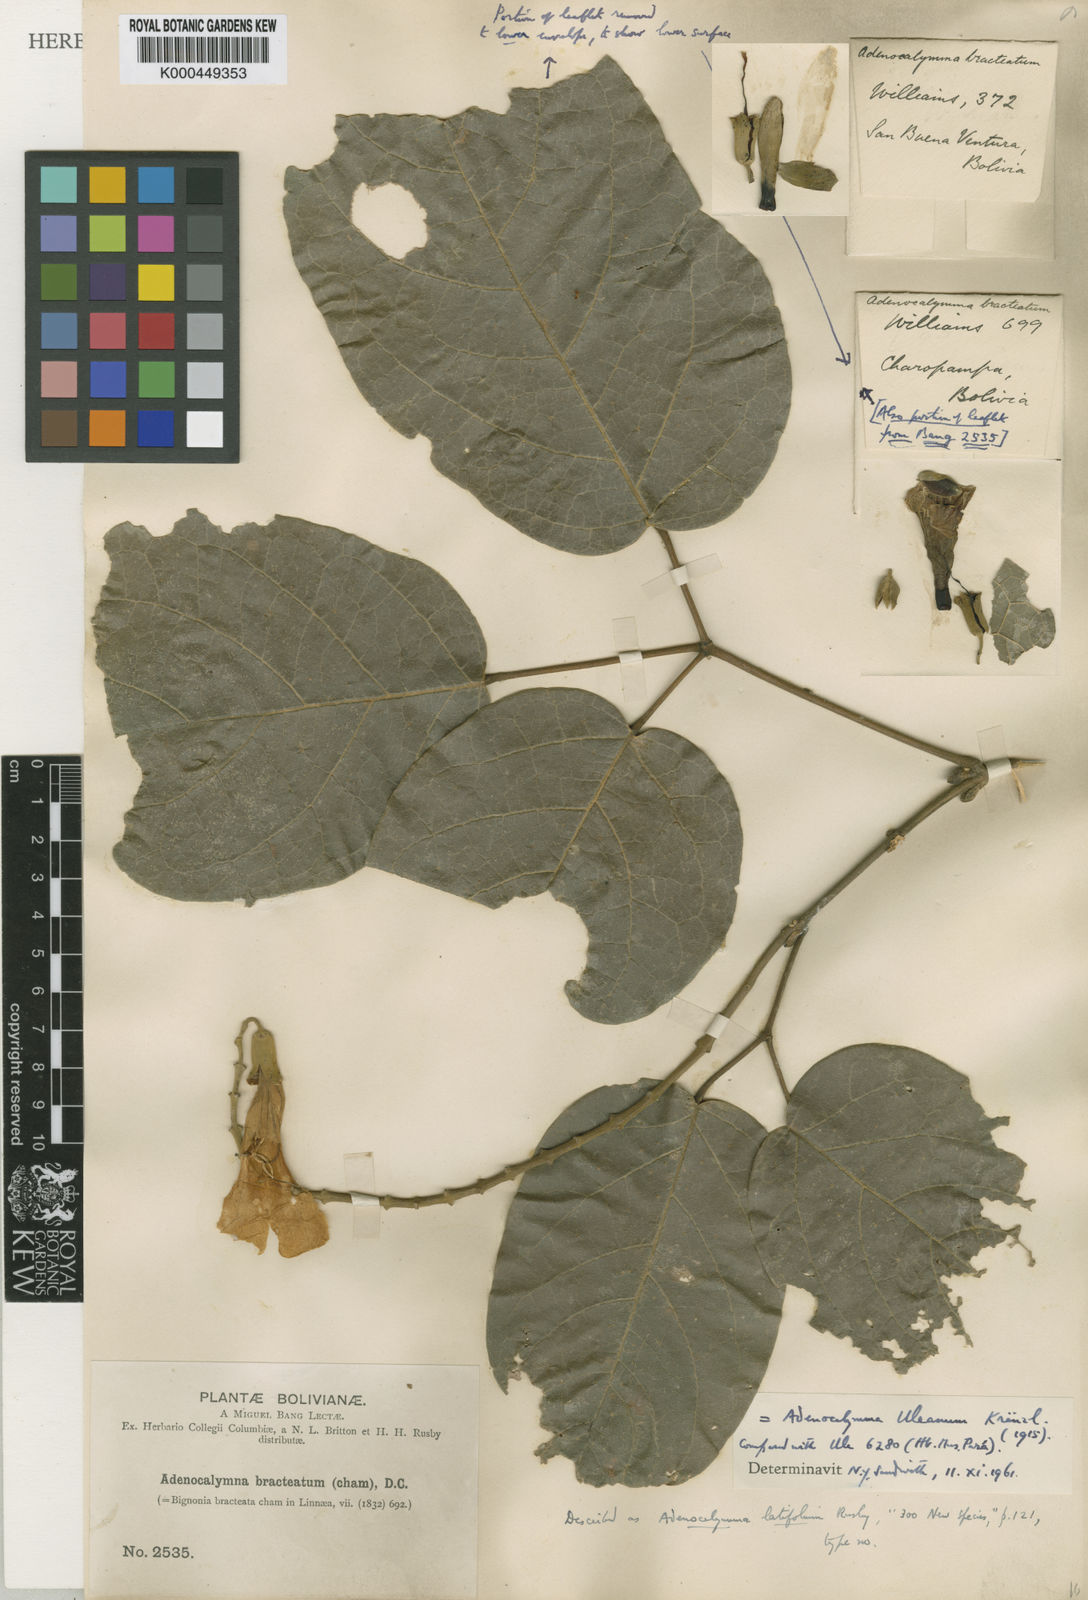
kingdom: Plantae
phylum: Tracheophyta
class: Magnoliopsida
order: Lamiales
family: Bignoniaceae
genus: Adenocalymma
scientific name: Adenocalymma uleanum
